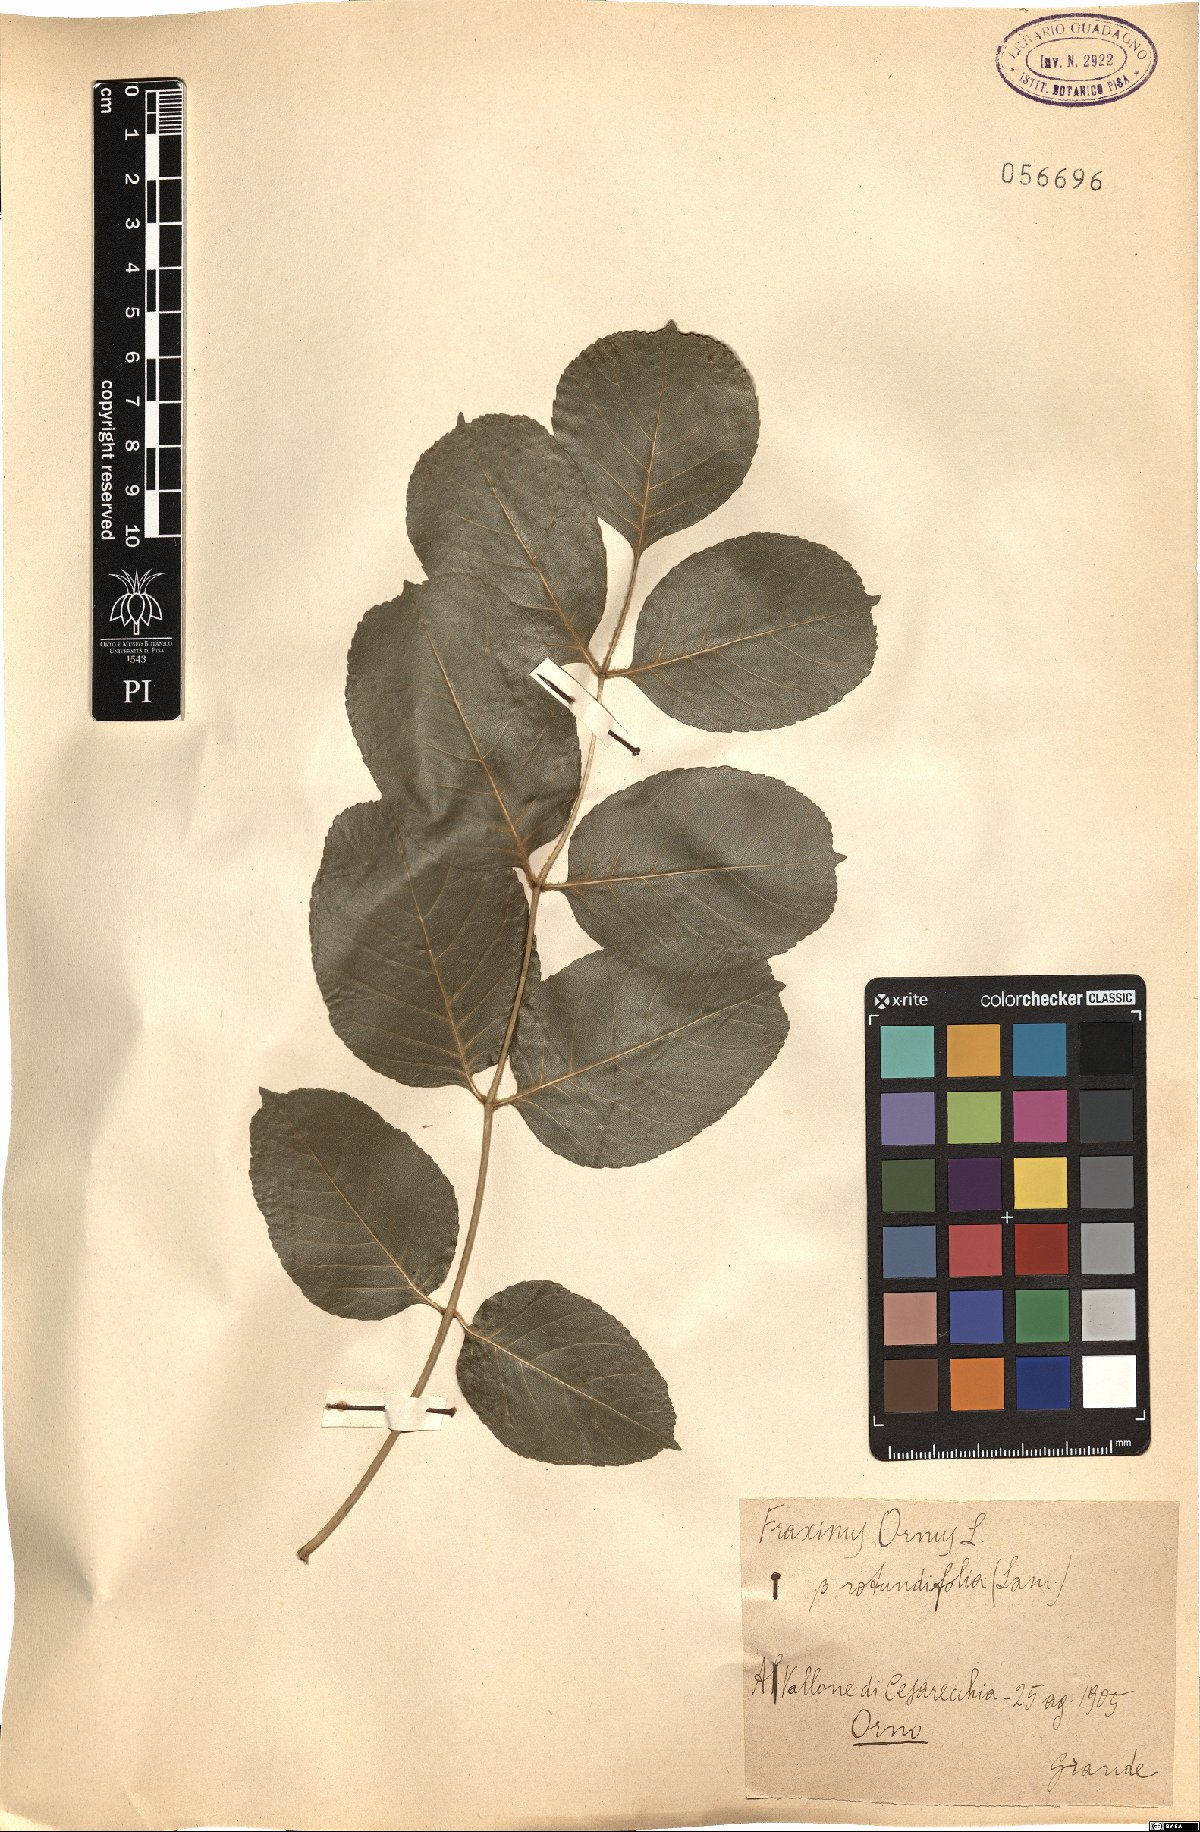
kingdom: Plantae
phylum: Tracheophyta
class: Magnoliopsida
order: Lamiales
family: Oleaceae
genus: Fraxinus
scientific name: Fraxinus ornus
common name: Manna ash
